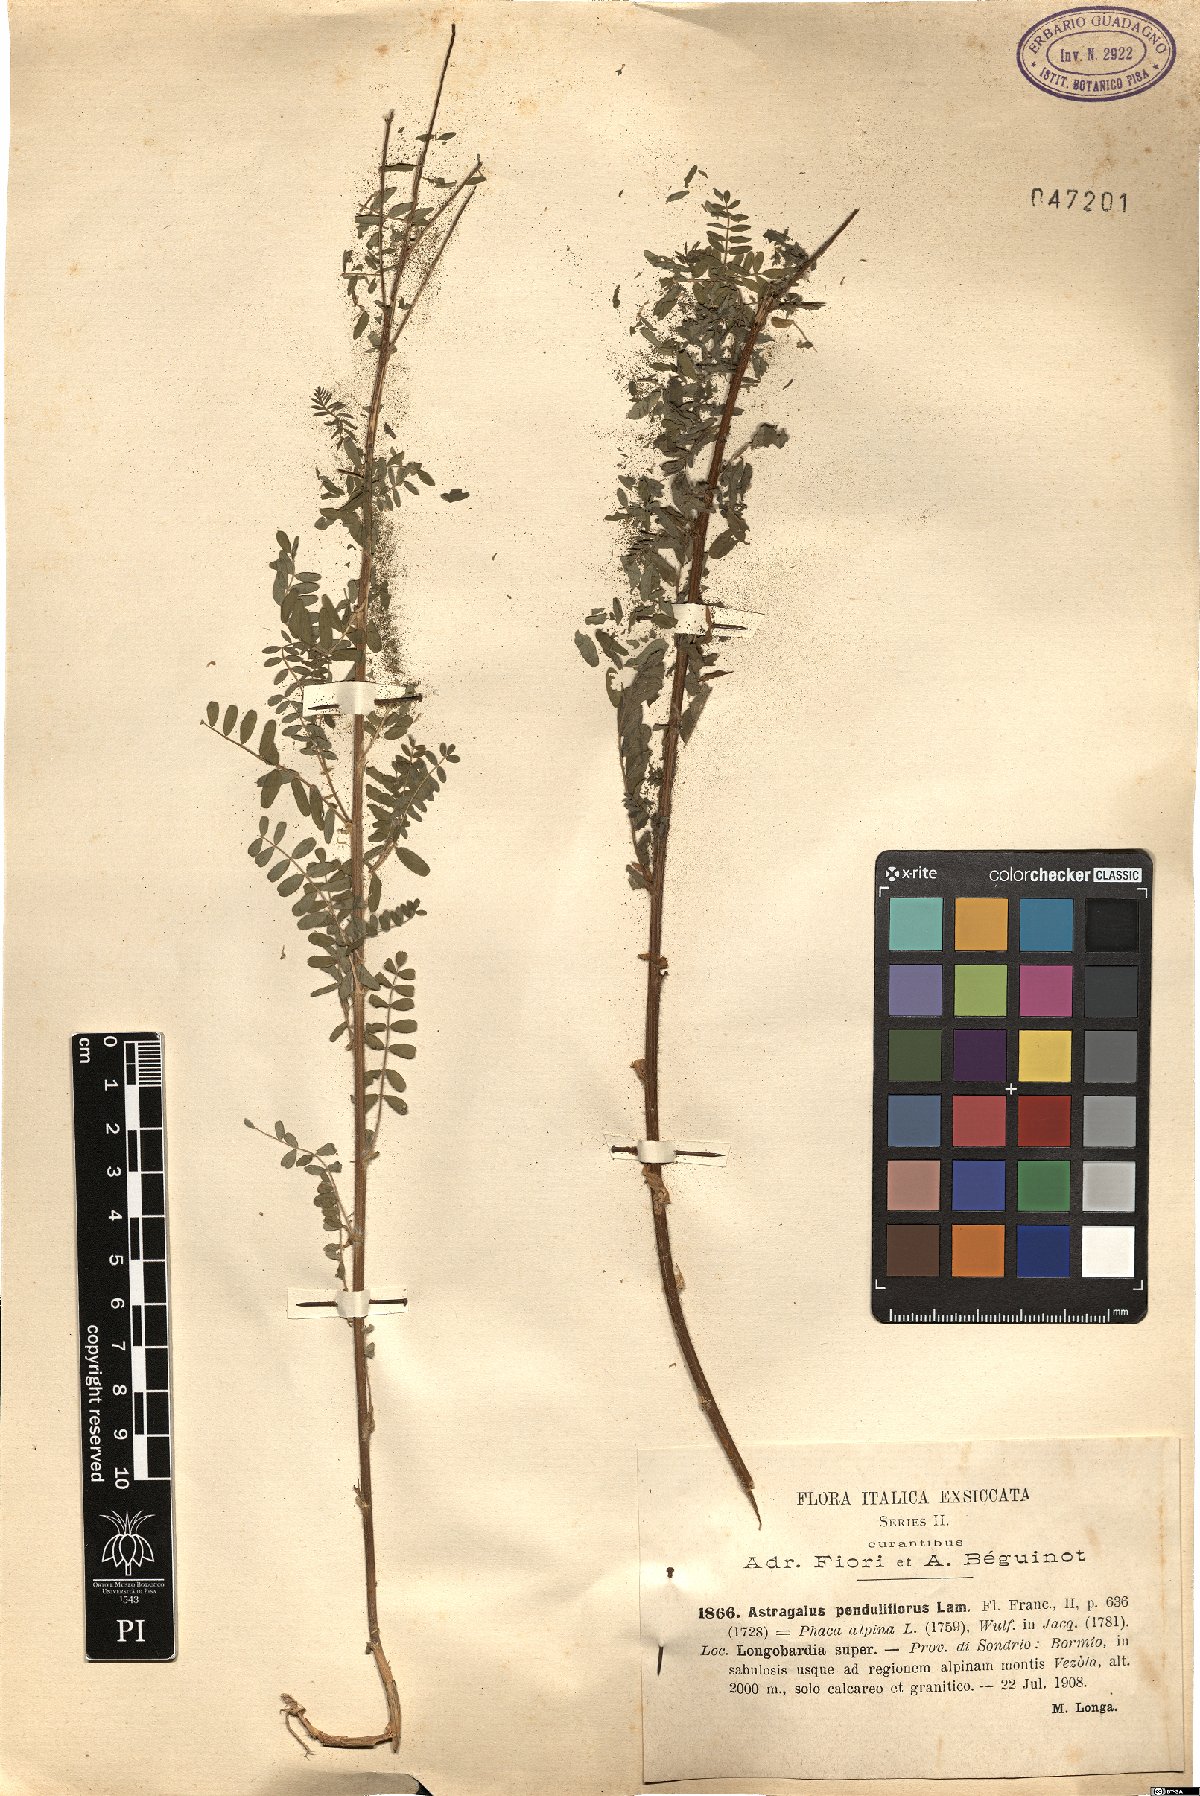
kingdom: Plantae
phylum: Tracheophyta
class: Magnoliopsida
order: Fabales
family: Fabaceae
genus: Astragalus
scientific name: Astragalus penduliflorus
